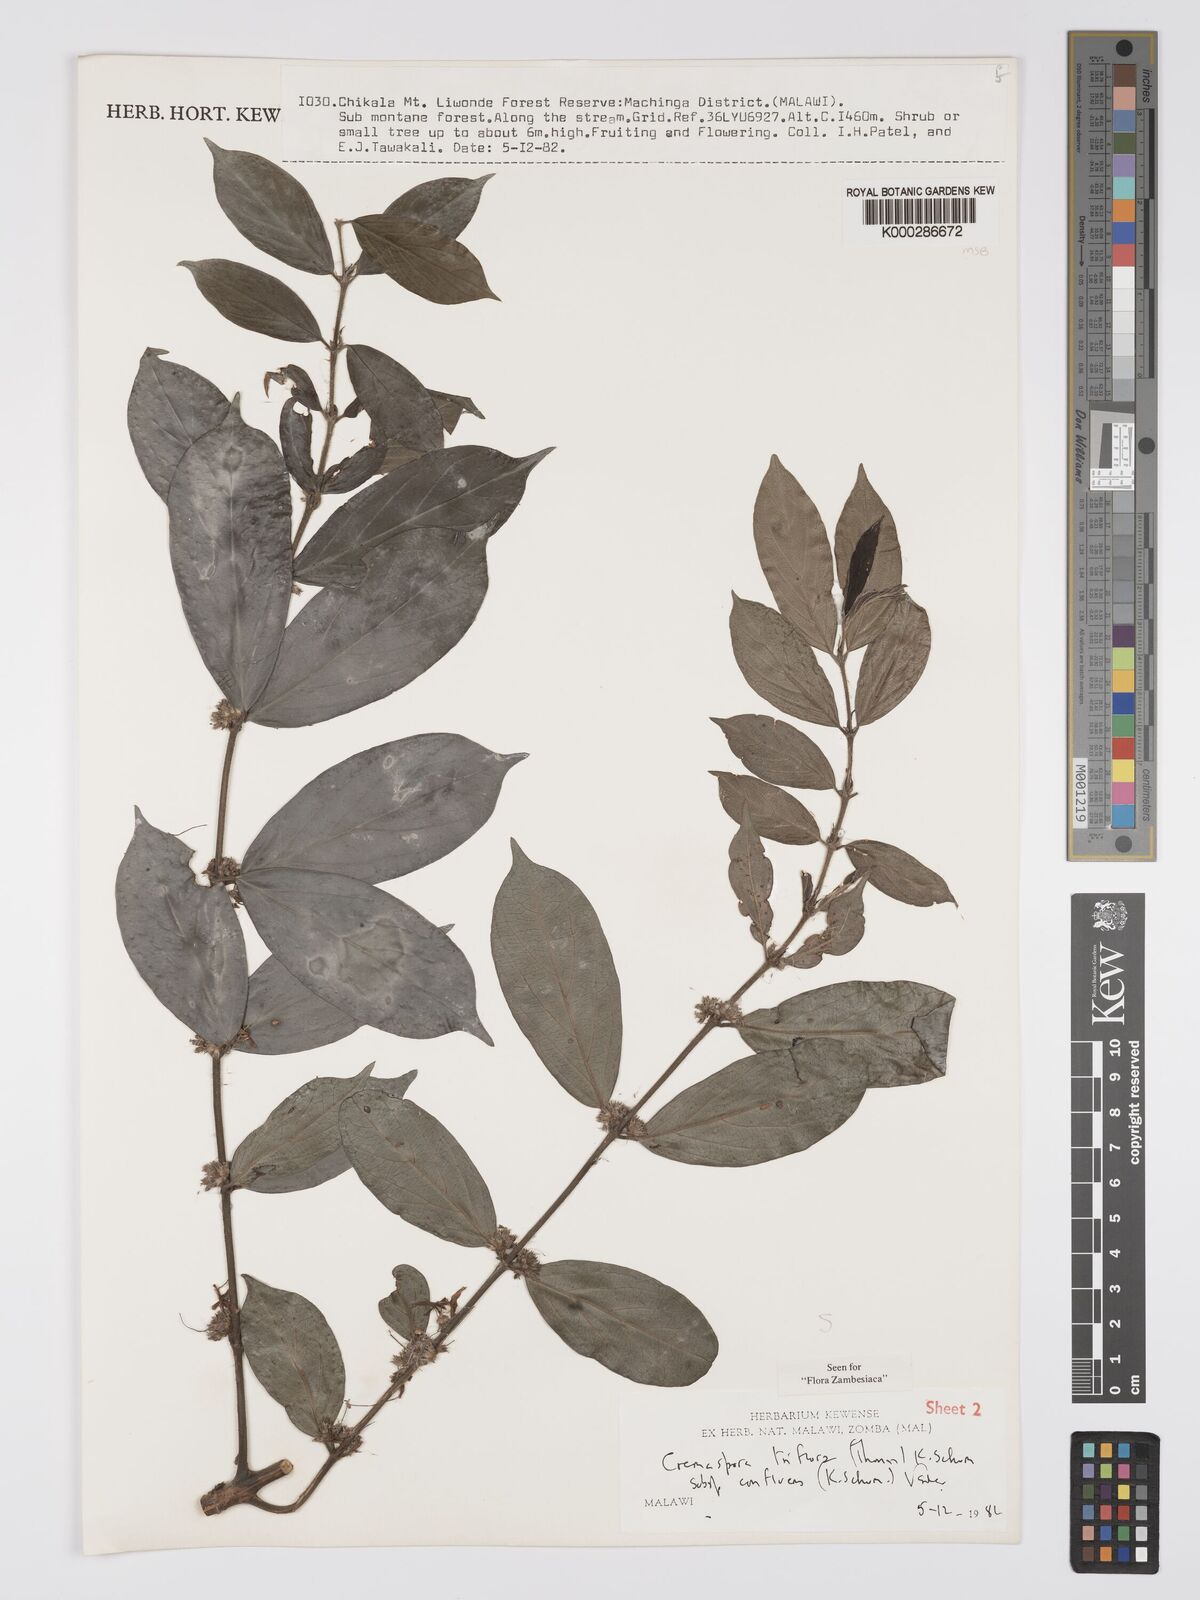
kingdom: Plantae
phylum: Tracheophyta
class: Magnoliopsida
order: Gentianales
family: Rubiaceae
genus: Cremaspora
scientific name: Cremaspora triflora
